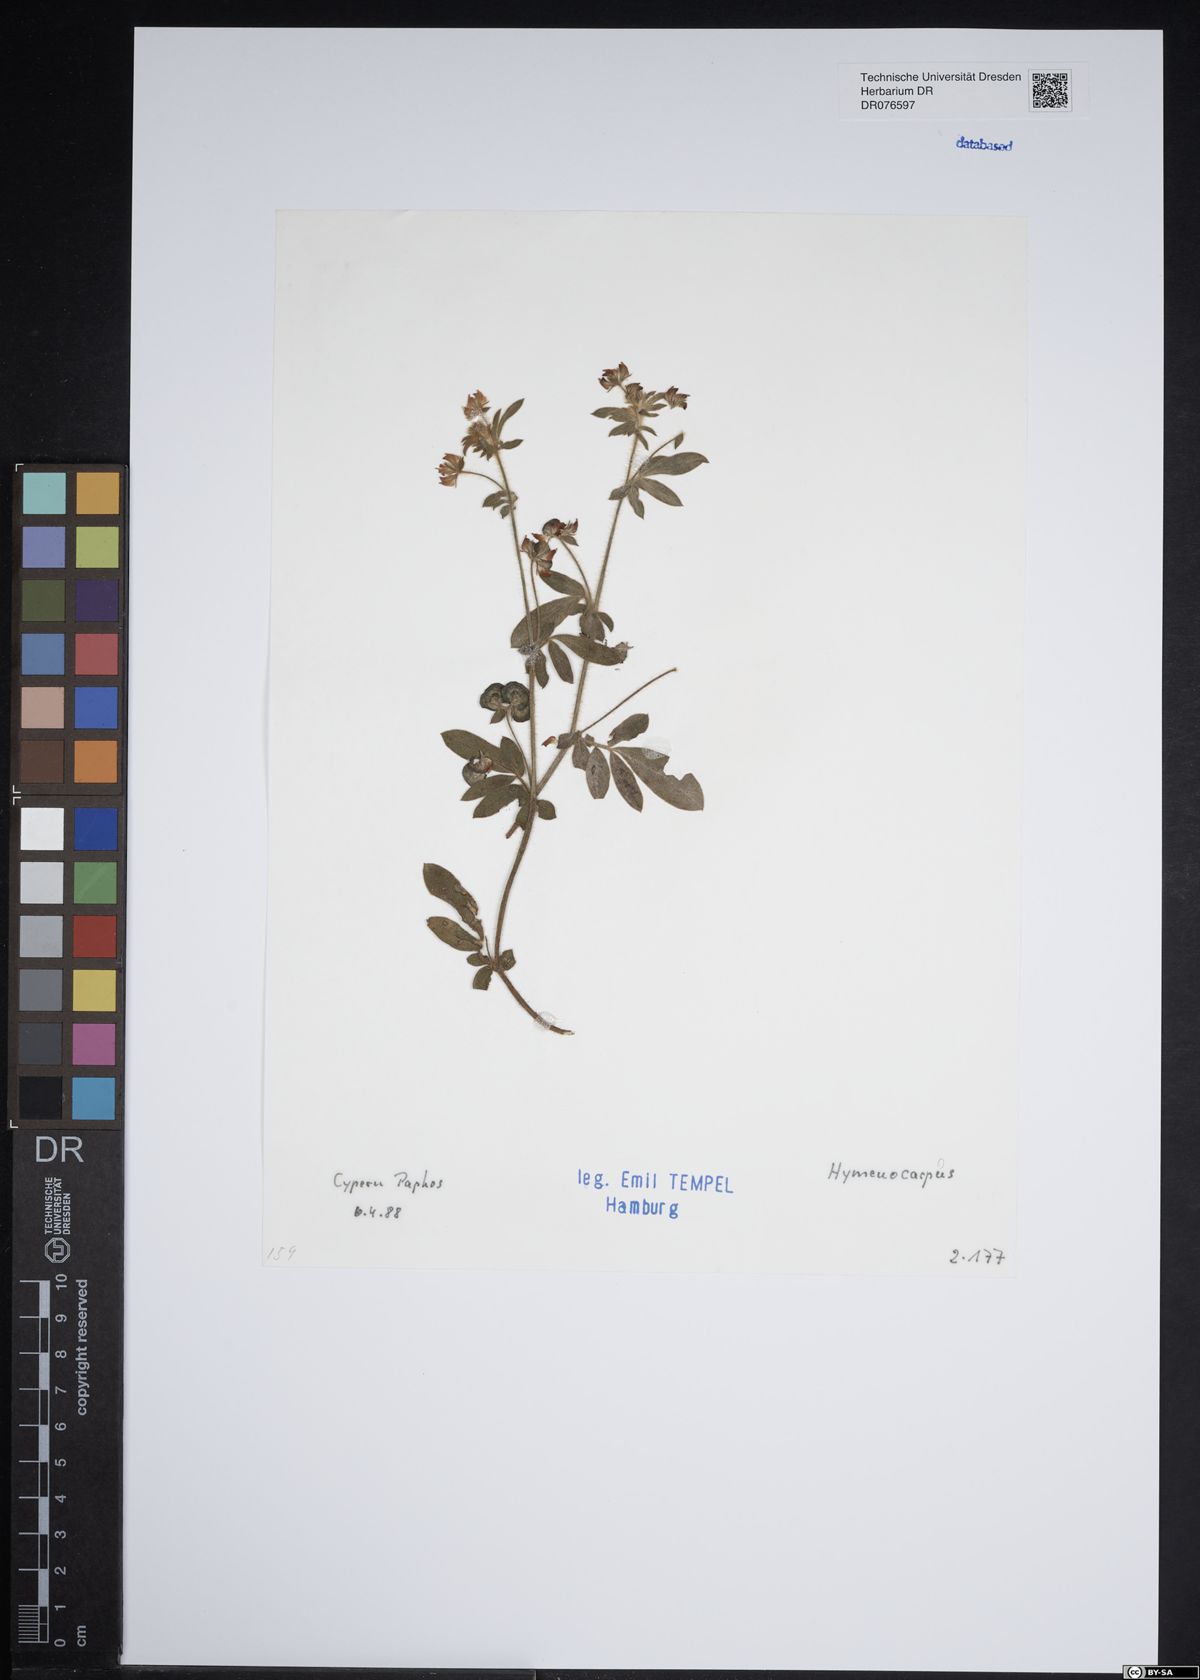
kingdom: Plantae
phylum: Tracheophyta
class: Magnoliopsida
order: Fabales
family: Fabaceae
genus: Anthyllis
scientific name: Anthyllis Hymenocarpos spec
